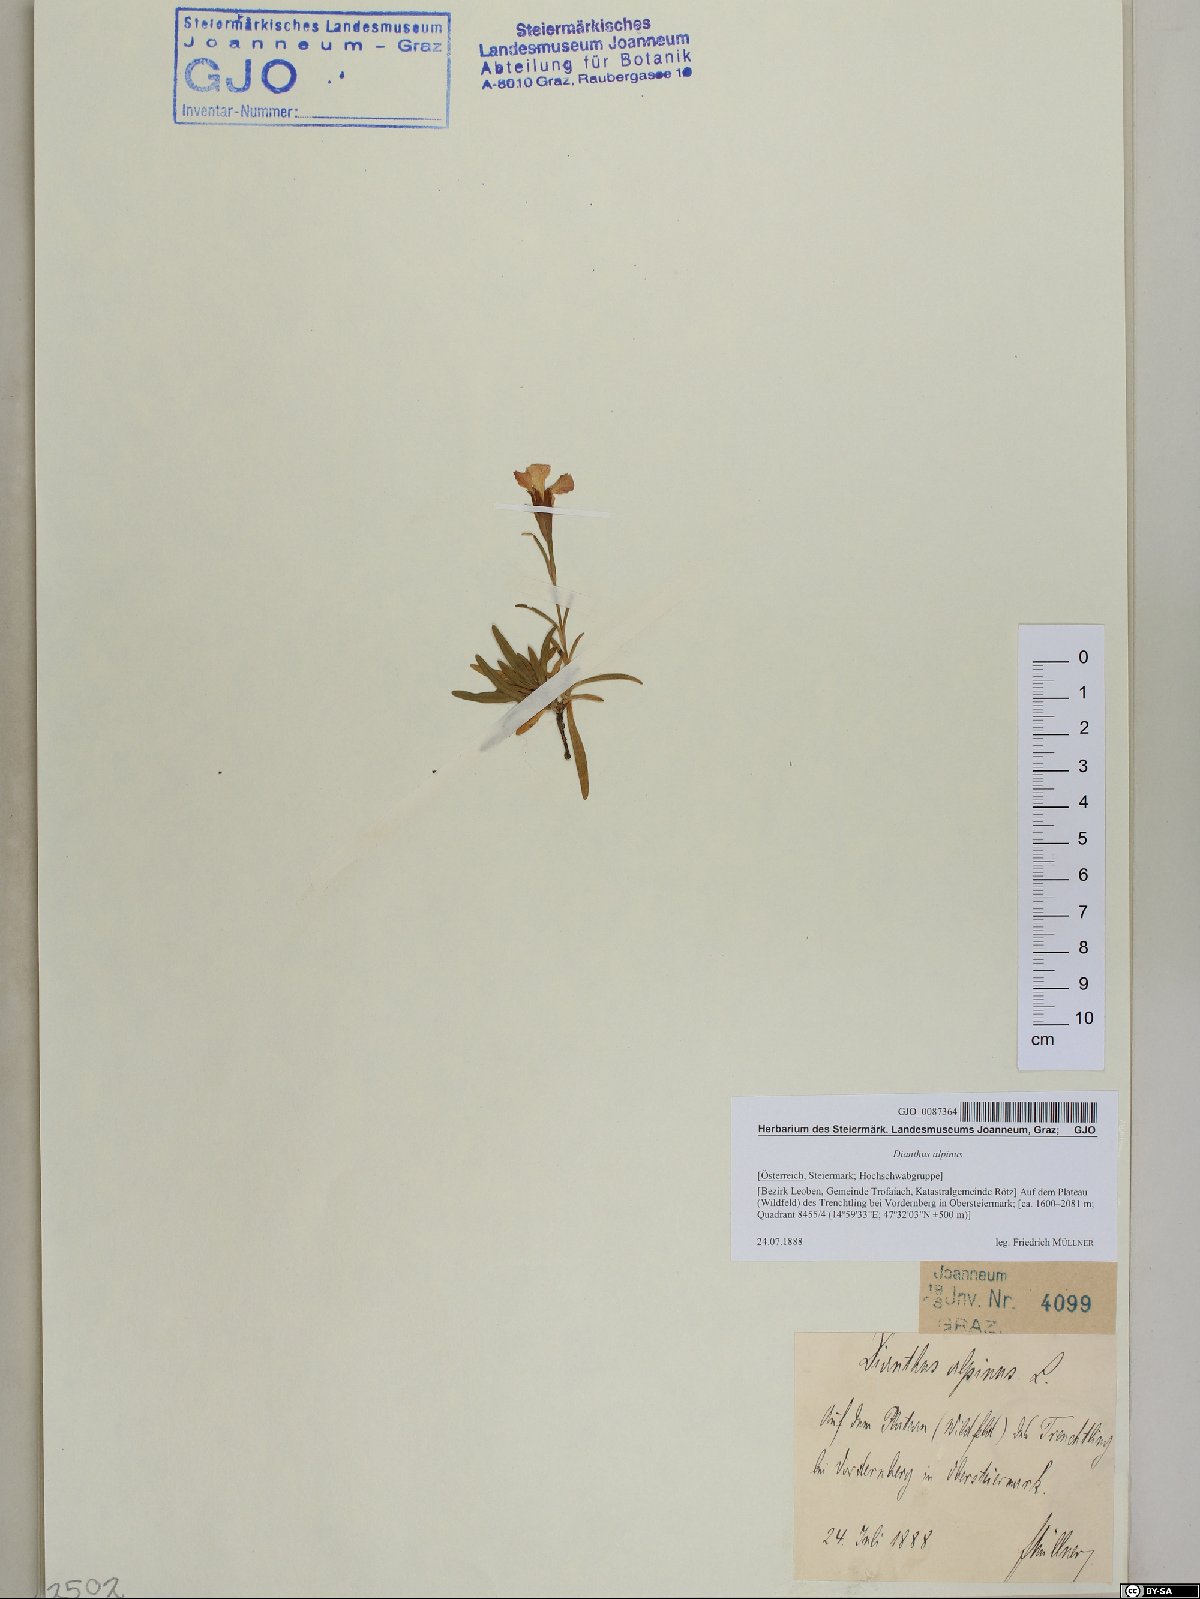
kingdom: Plantae
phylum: Tracheophyta
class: Magnoliopsida
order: Caryophyllales
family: Caryophyllaceae
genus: Dianthus
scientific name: Dianthus alpinus
